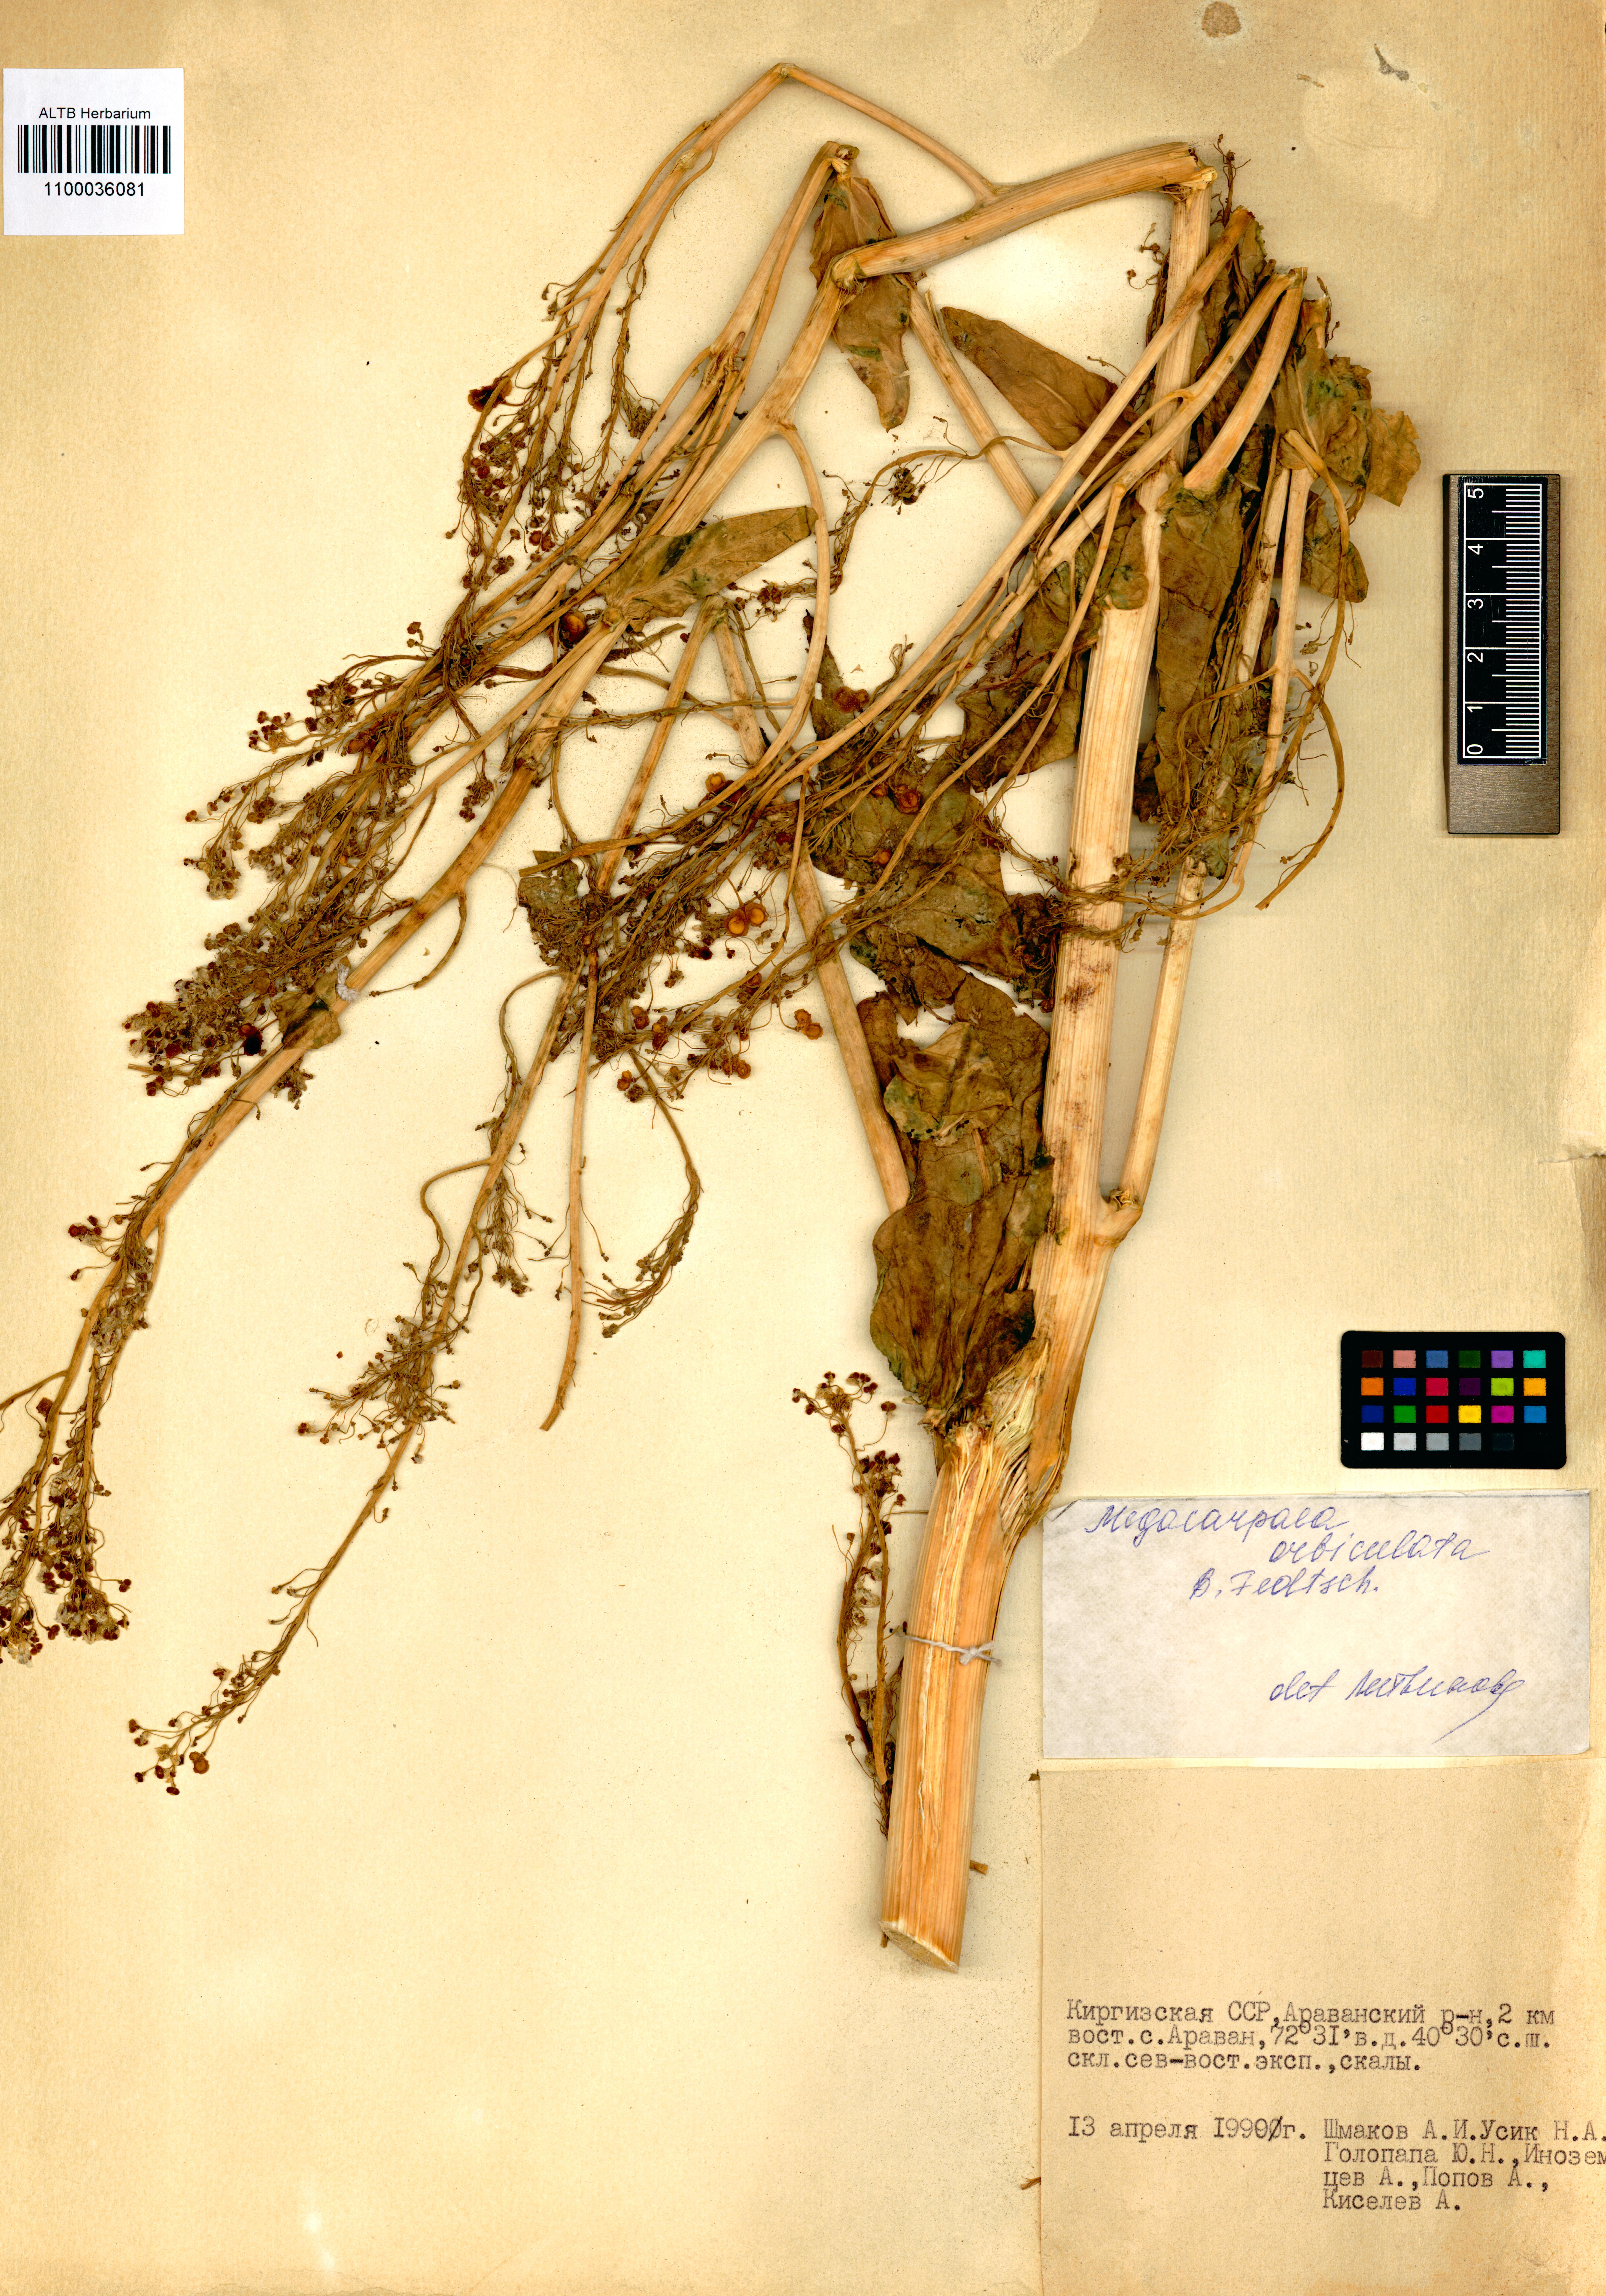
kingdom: Plantae
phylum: Tracheophyta
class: Magnoliopsida
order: Brassicales
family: Brassicaceae
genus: Megacarpaea
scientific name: Megacarpaea orbiculata
